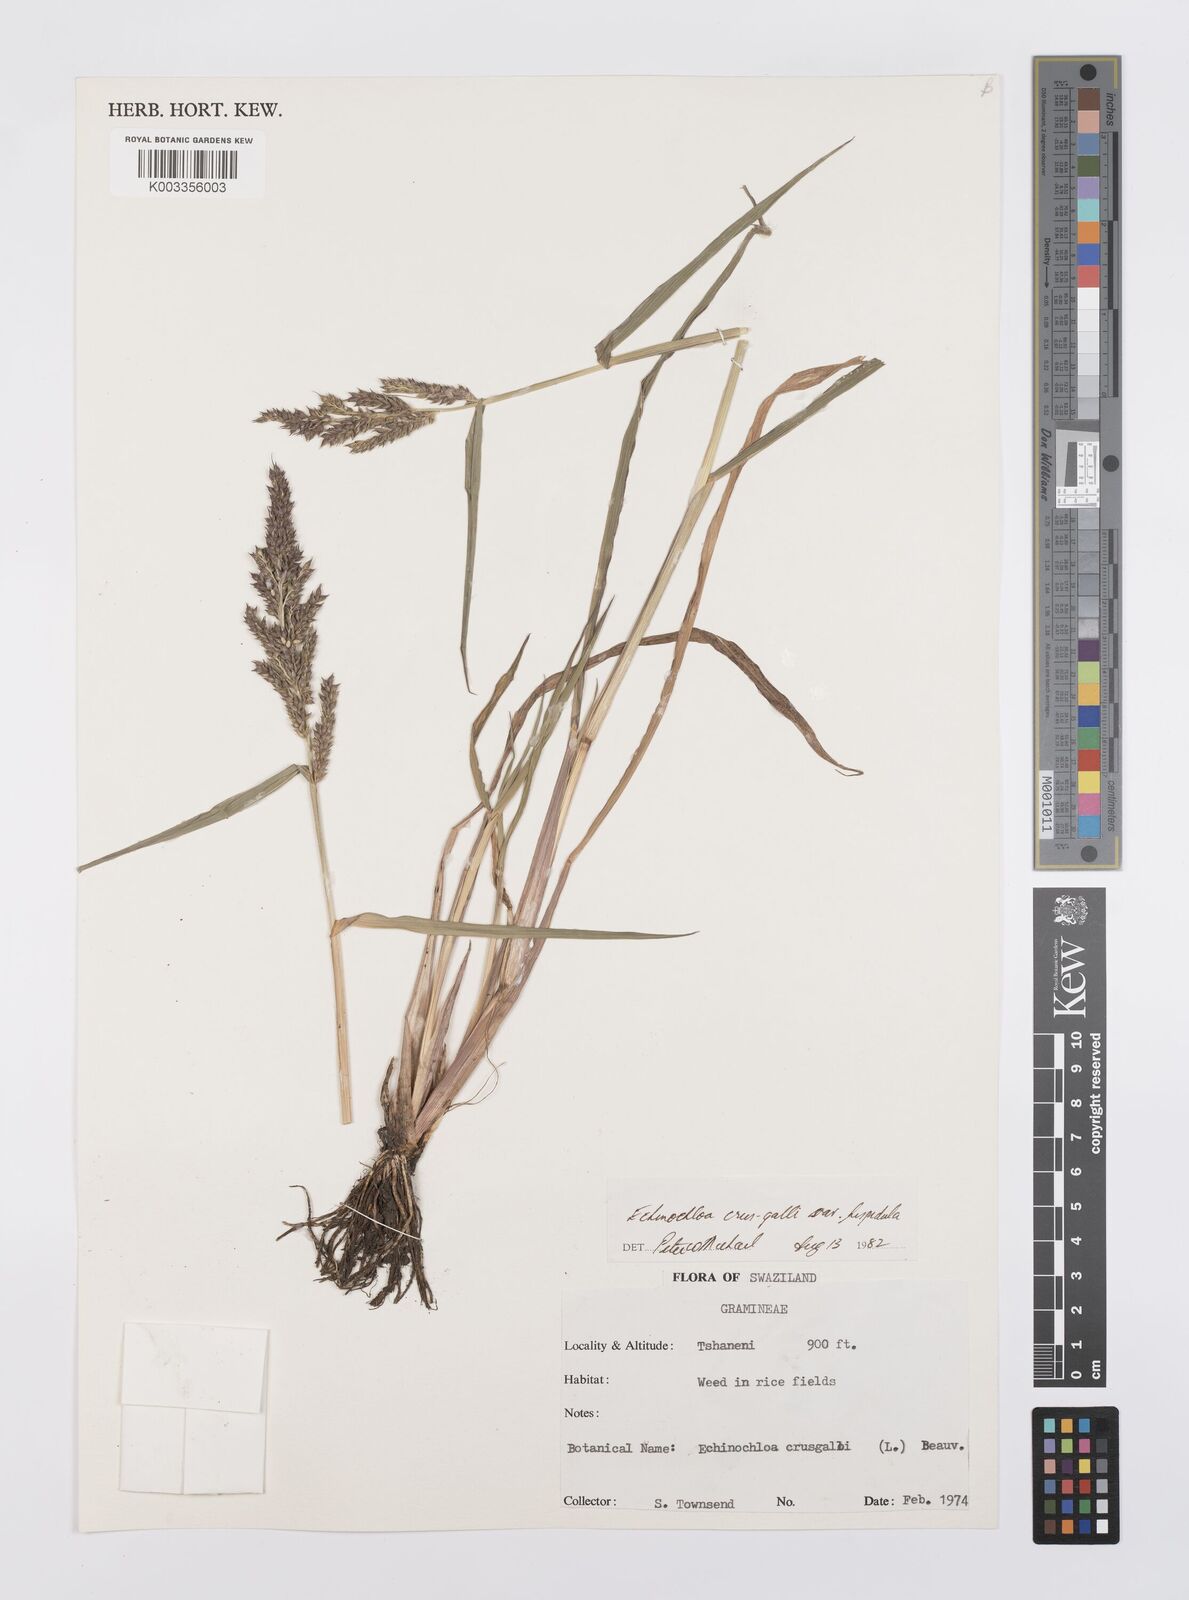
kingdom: Plantae
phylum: Tracheophyta
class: Liliopsida
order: Poales
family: Poaceae
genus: Echinochloa
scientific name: Echinochloa crus-galli
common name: Cockspur
